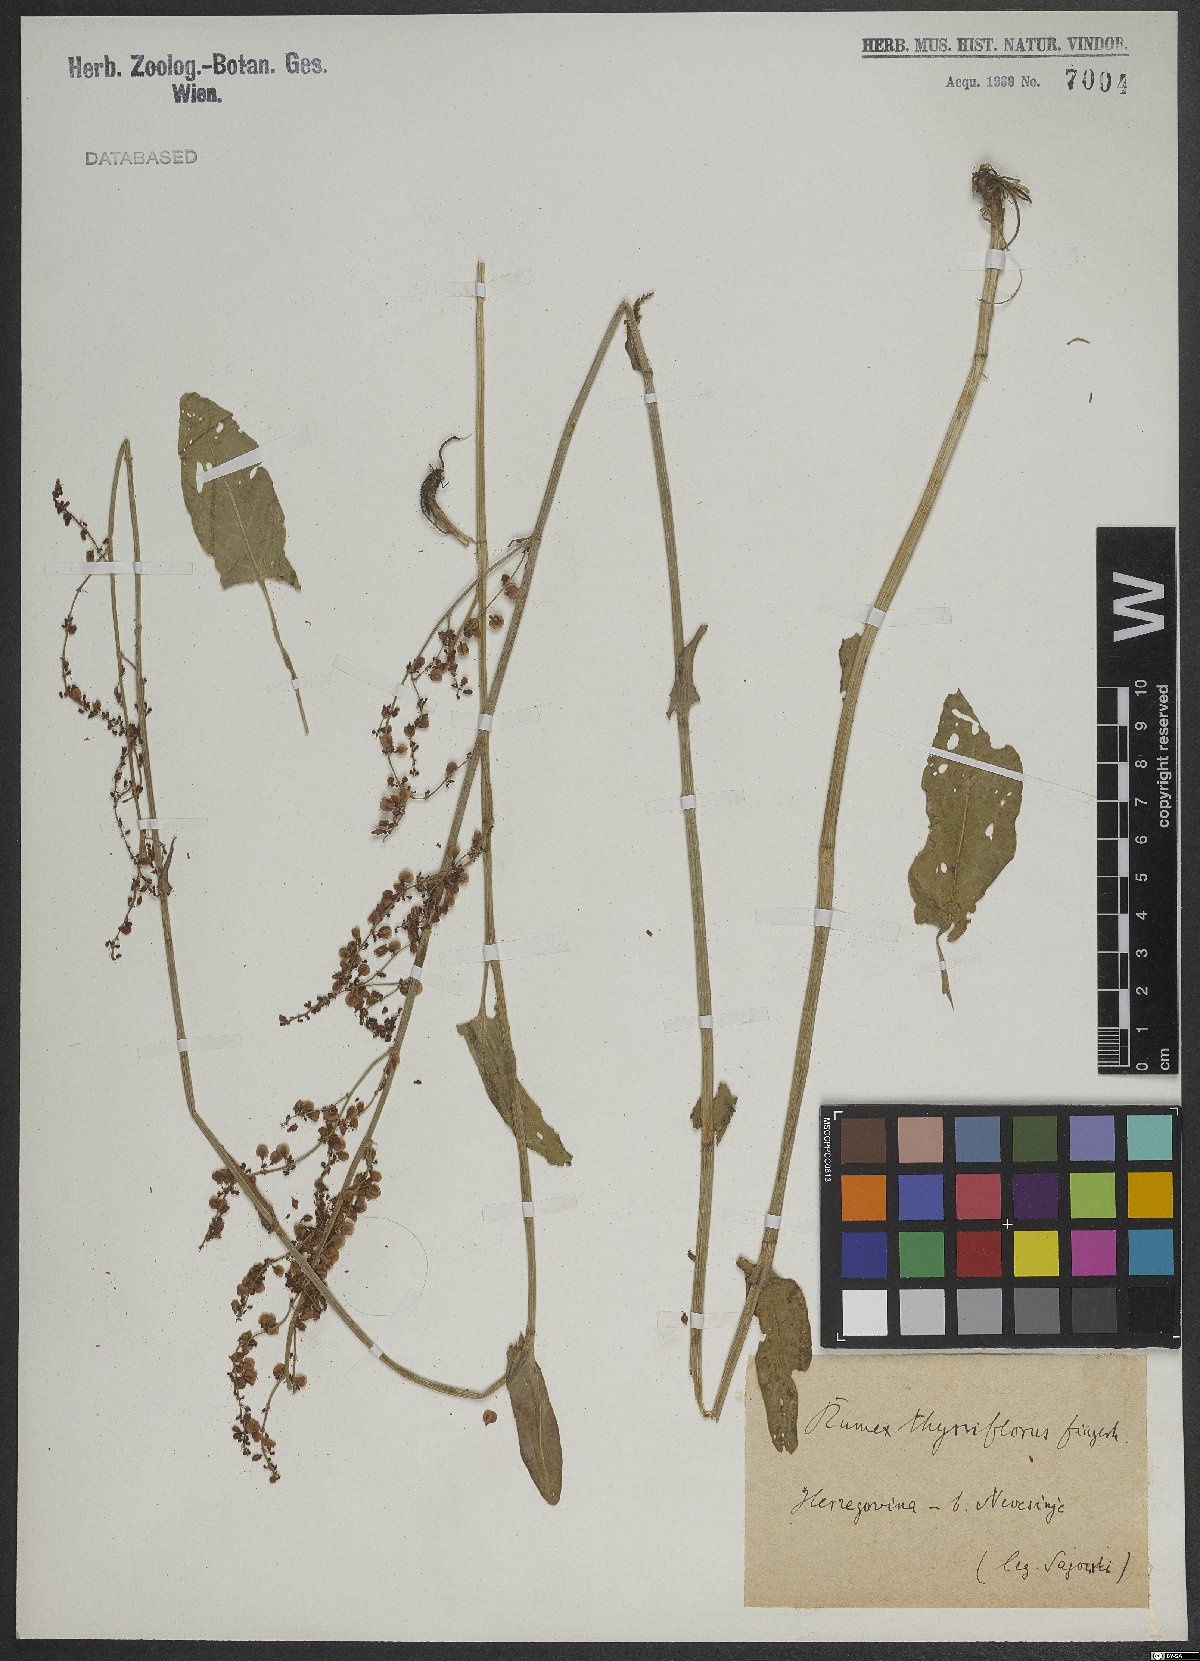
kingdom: Plantae
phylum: Tracheophyta
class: Magnoliopsida
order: Caryophyllales
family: Polygonaceae
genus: Rumex
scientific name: Rumex acetosa
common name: Garden sorrel
